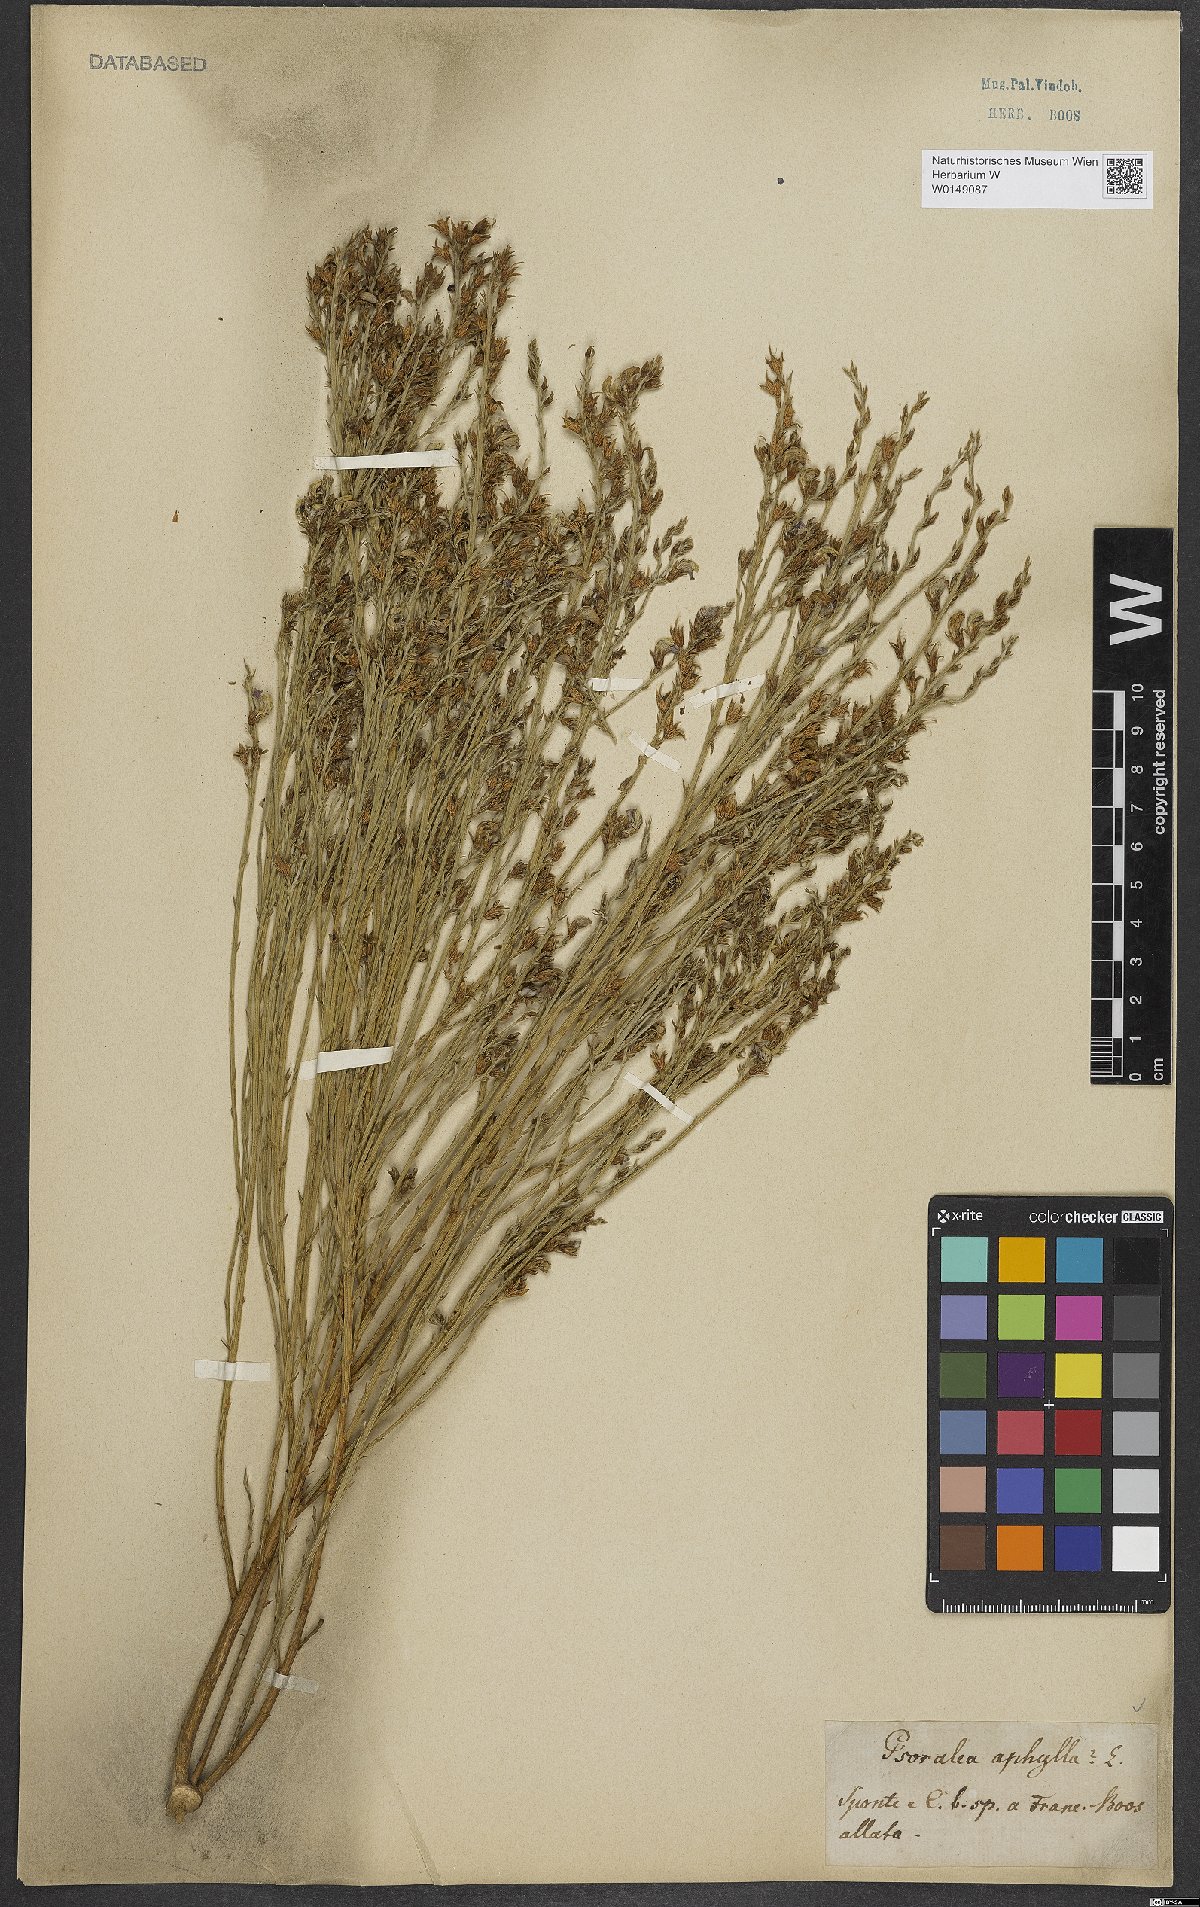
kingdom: Plantae
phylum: Tracheophyta
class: Magnoliopsida
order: Fabales
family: Fabaceae
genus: Psoralea
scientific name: Psoralea aphylla
